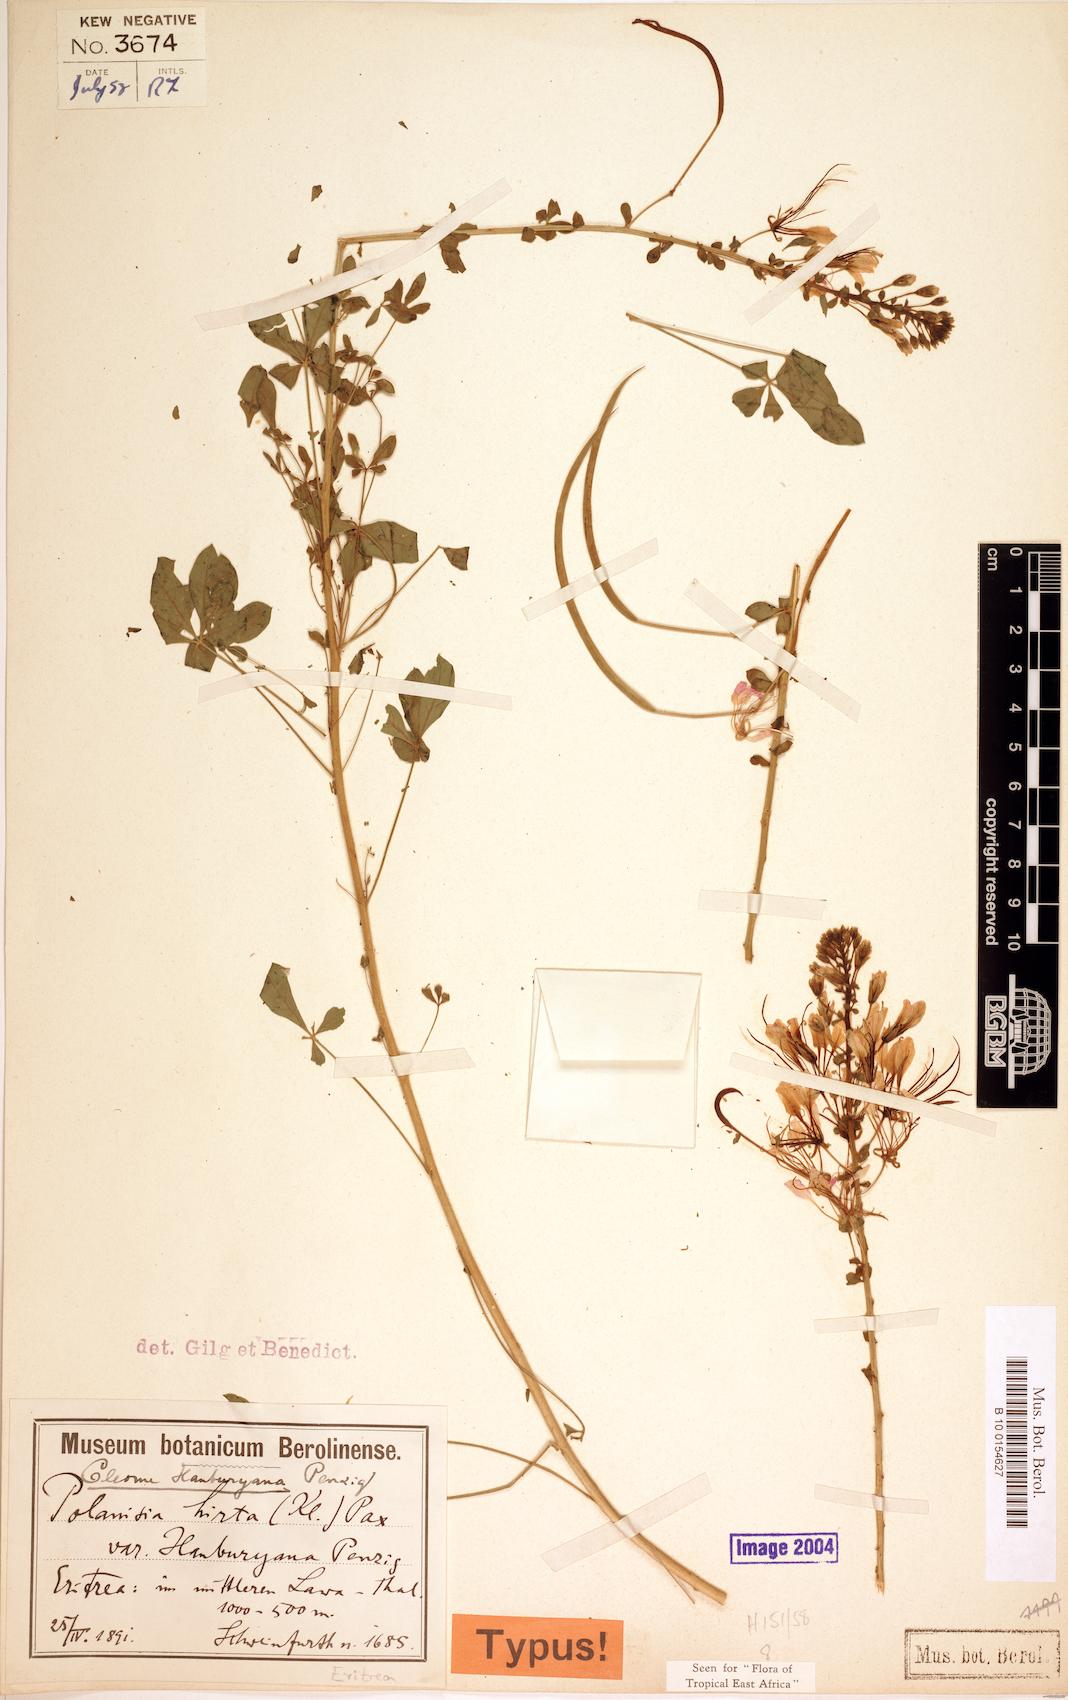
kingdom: Plantae
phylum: Tracheophyta
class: Magnoliopsida
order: Brassicales
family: Cleomaceae
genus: Sieruela
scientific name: Sieruela hanburyana
